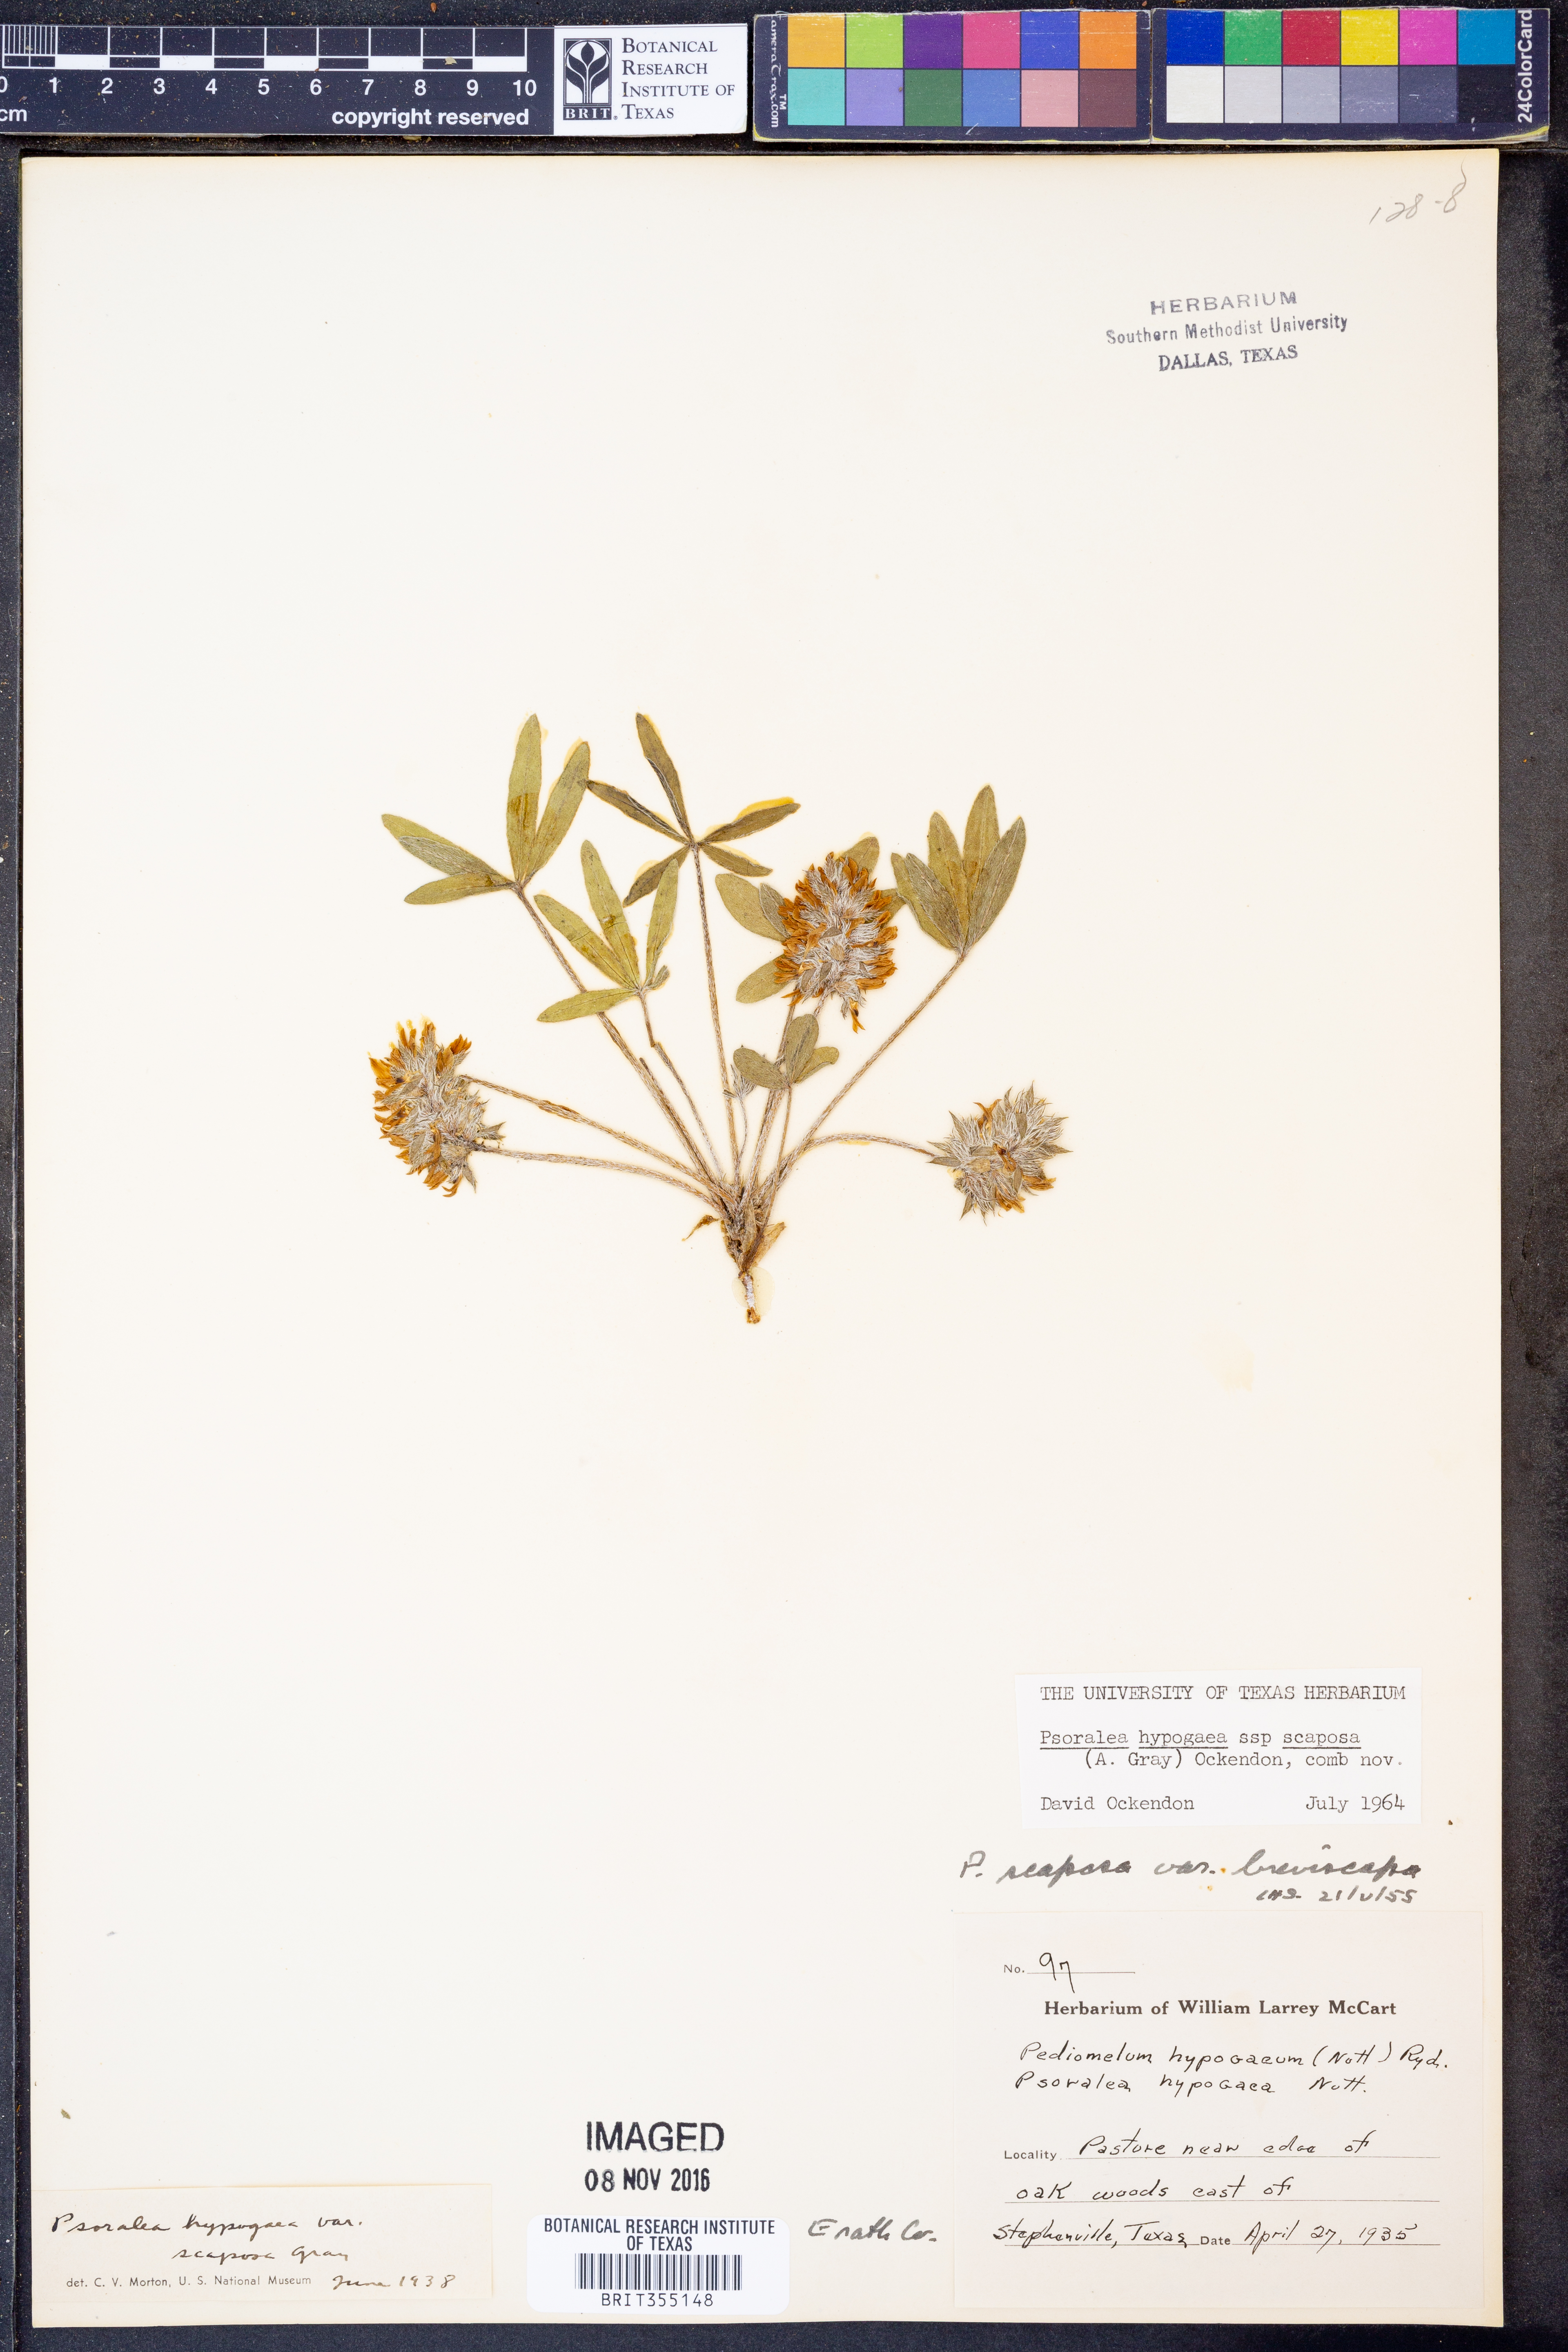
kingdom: Plantae
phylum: Tracheophyta
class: Magnoliopsida
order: Fabales
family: Fabaceae
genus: Pediomelum
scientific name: Pediomelum hypogaeum
